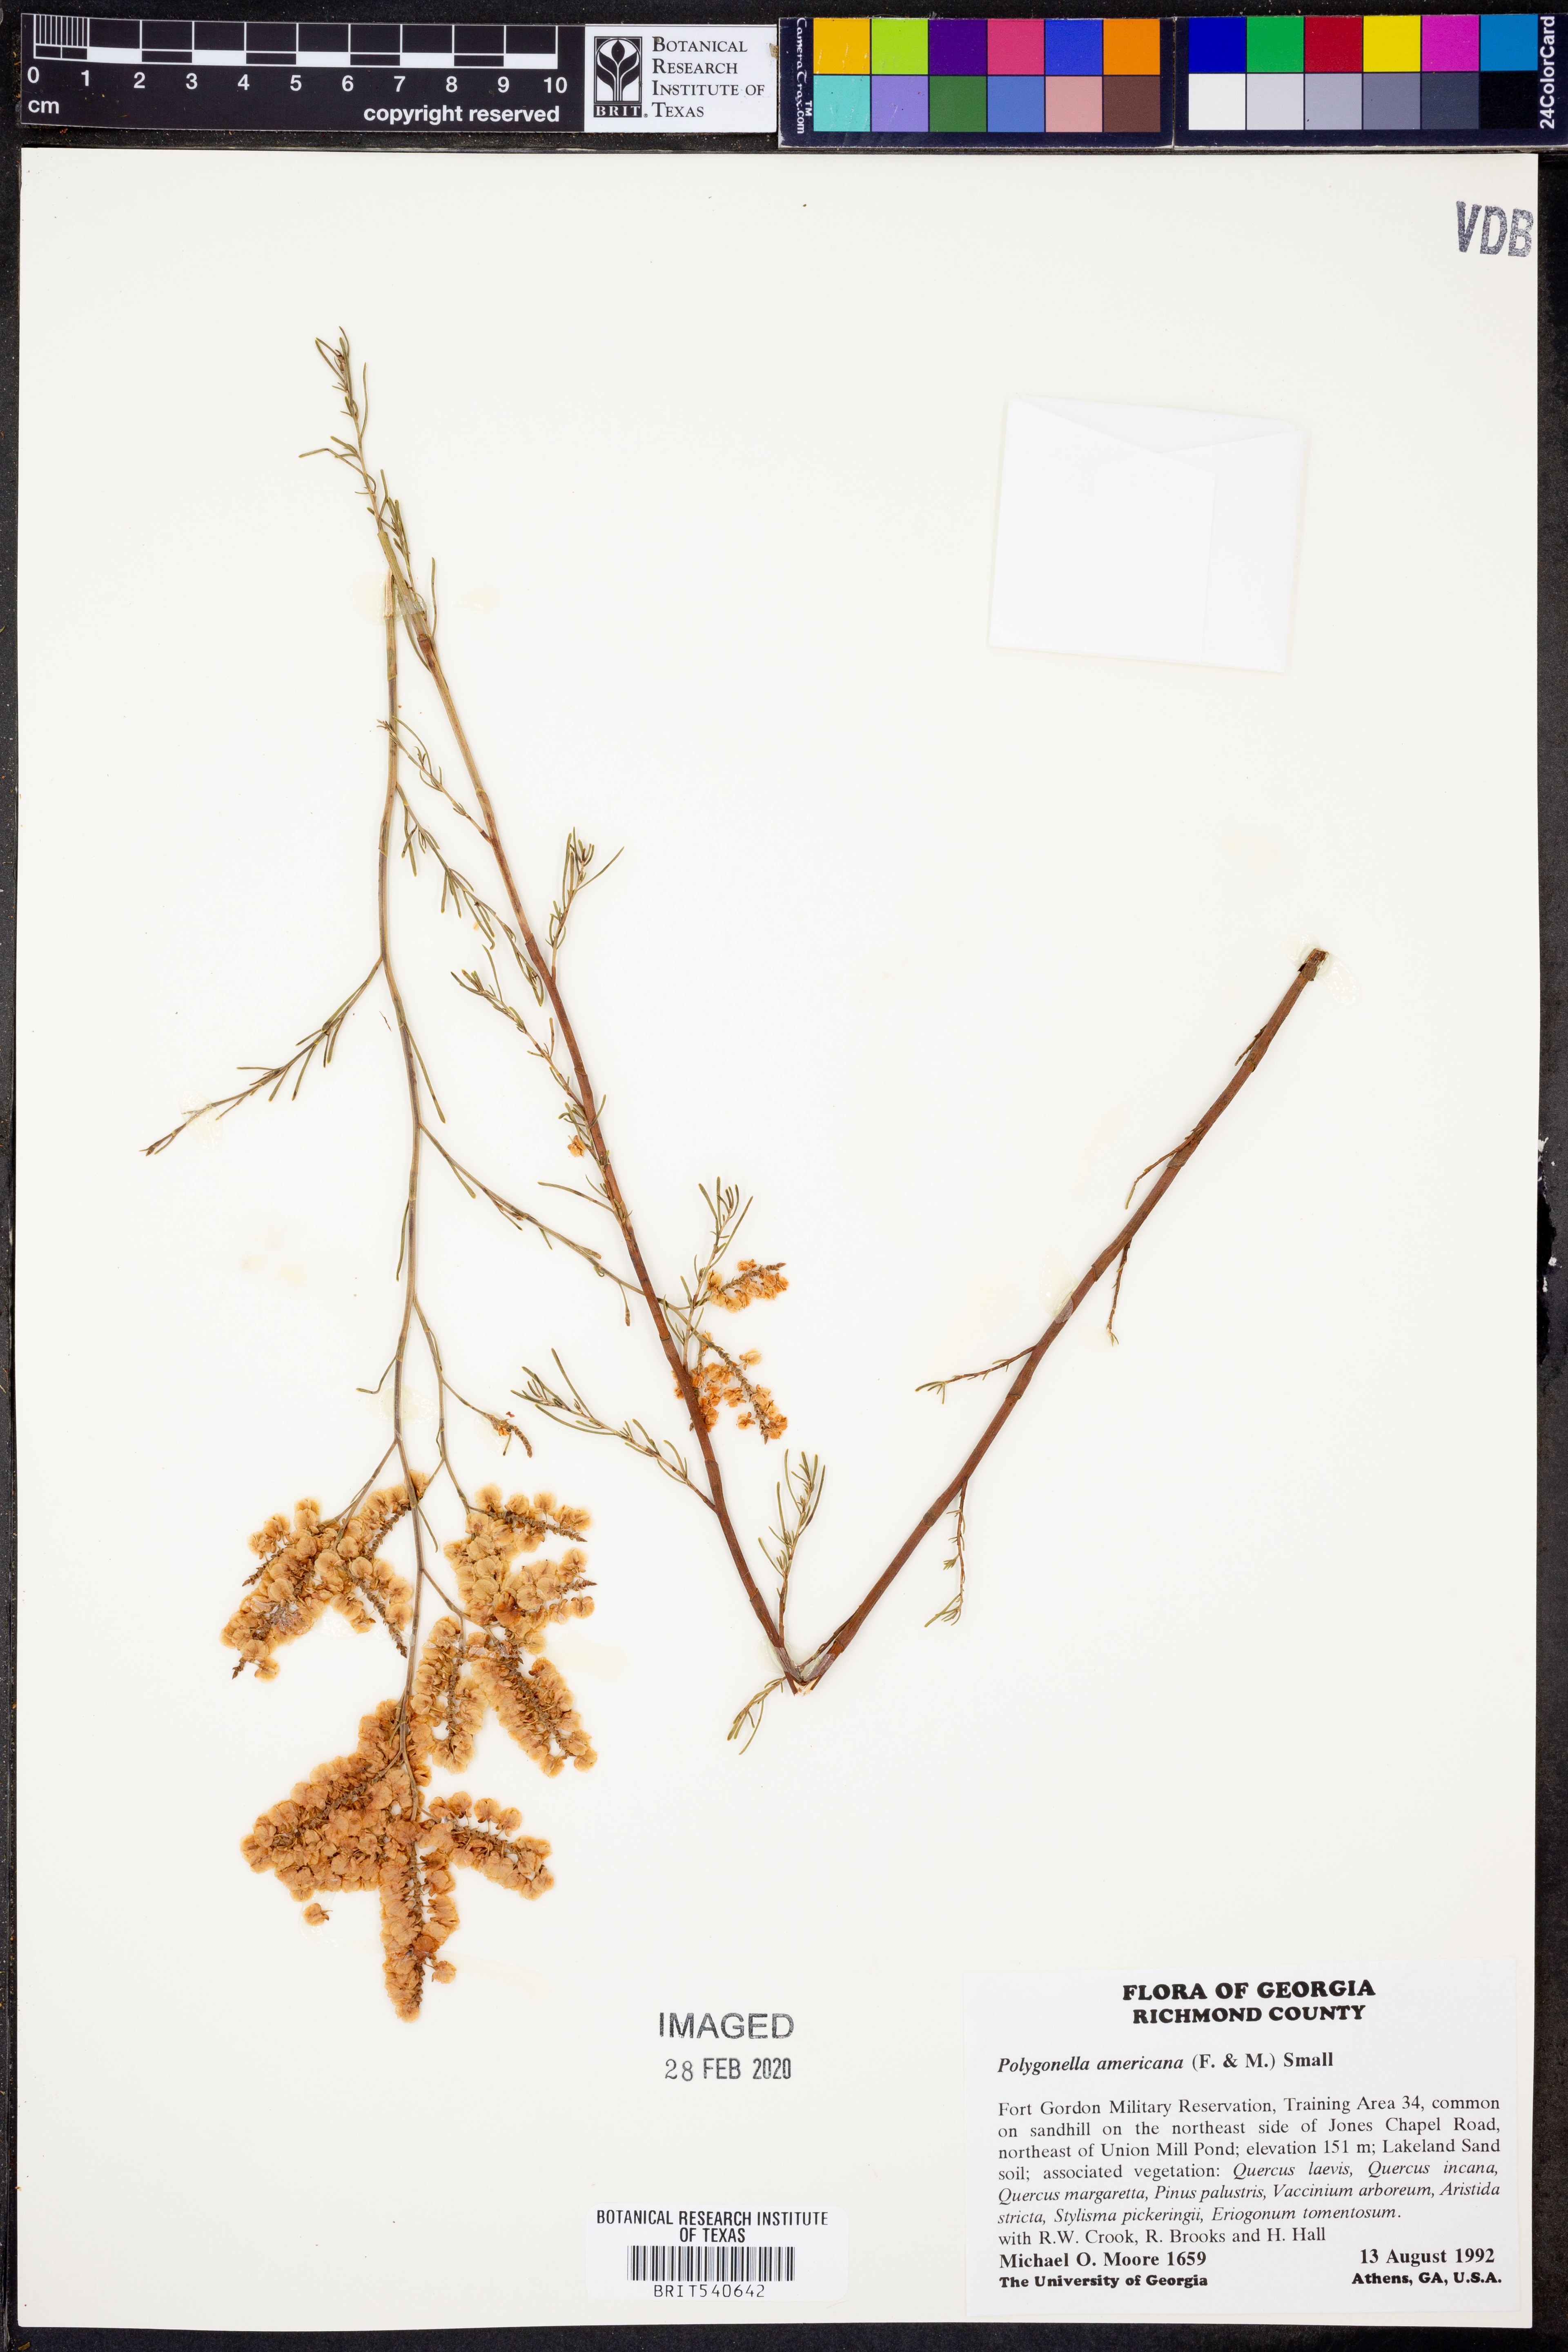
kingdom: Plantae
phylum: Tracheophyta
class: Magnoliopsida
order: Caryophyllales
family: Polygonaceae
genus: Polygonella
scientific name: Polygonella americana
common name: Southern jointweed
